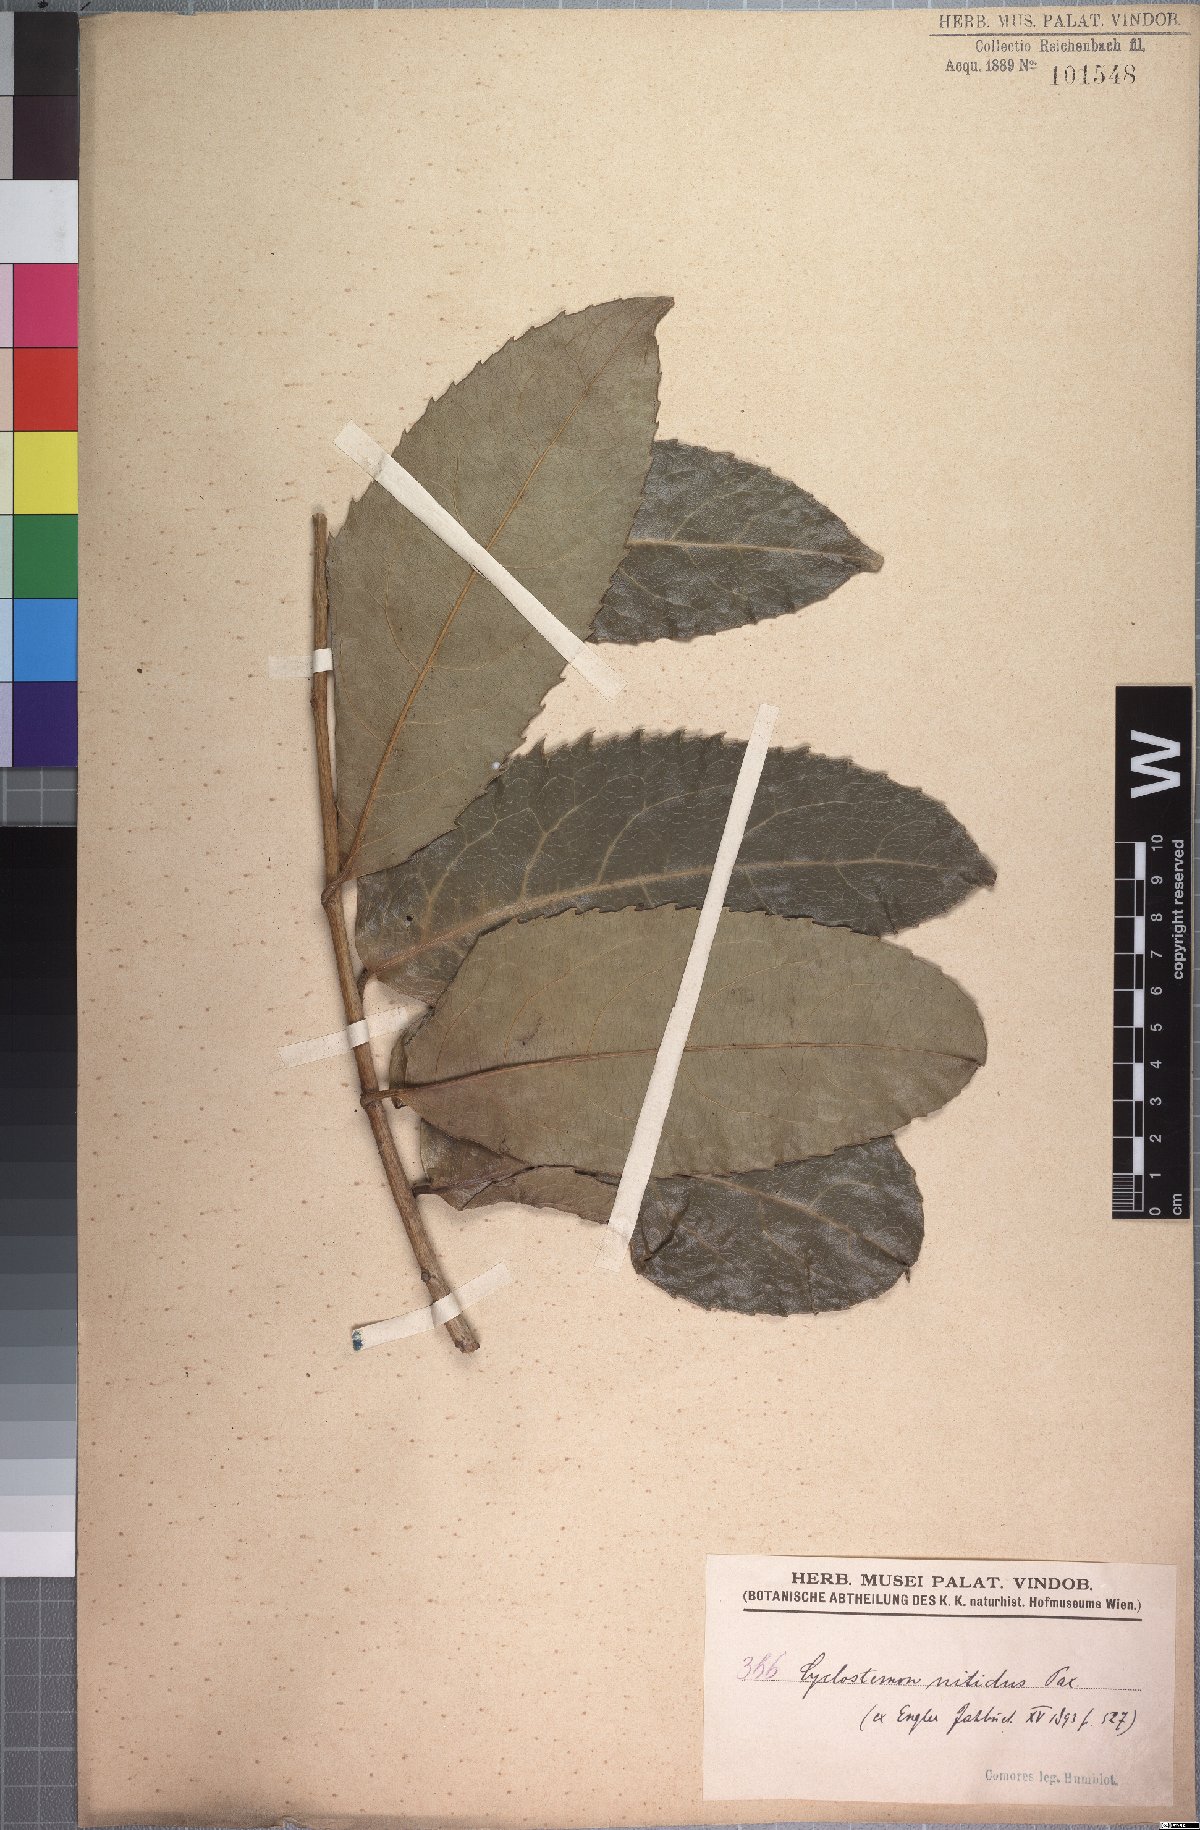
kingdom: Plantae
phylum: Tracheophyta
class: Magnoliopsida
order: Malpighiales
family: Putranjivaceae
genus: Drypetes
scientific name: Drypetes comorensis
